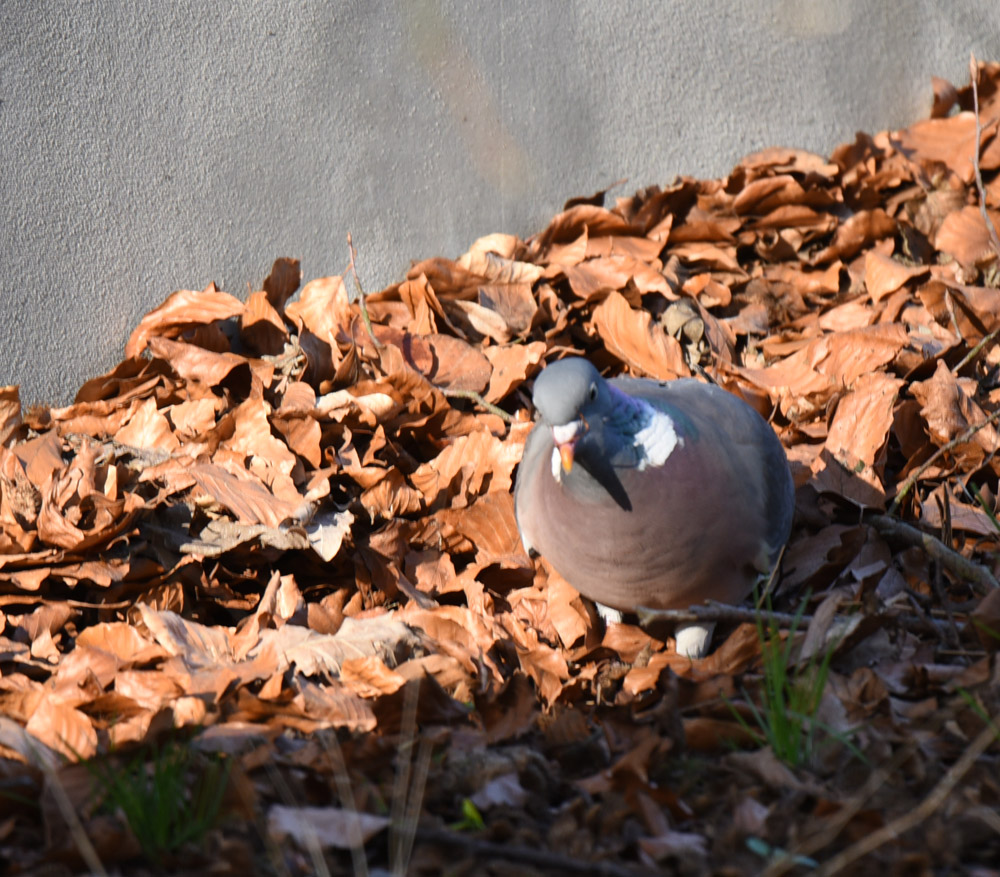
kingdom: Animalia
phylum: Chordata
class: Aves
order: Columbiformes
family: Columbidae
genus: Columba
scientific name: Columba palumbus
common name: Common wood pigeon
